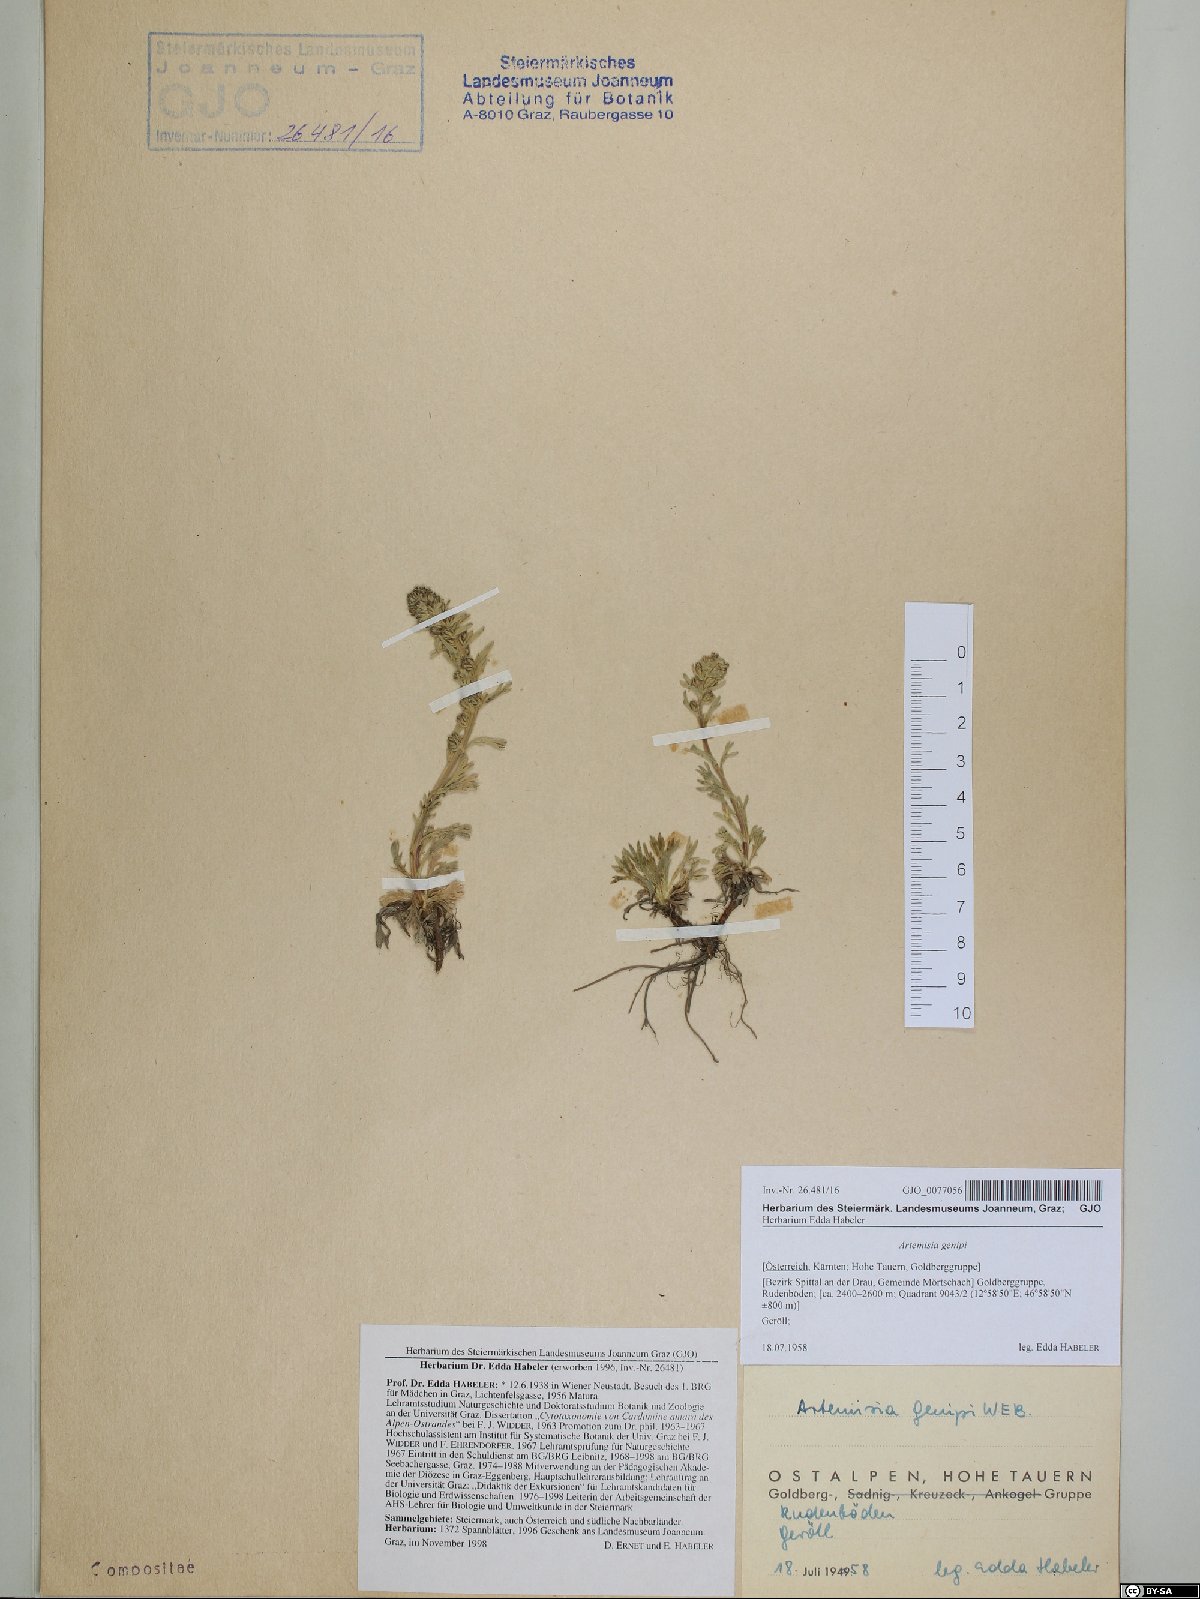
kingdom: Plantae
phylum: Tracheophyta
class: Magnoliopsida
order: Asterales
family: Asteraceae
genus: Artemisia
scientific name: Artemisia genipi
